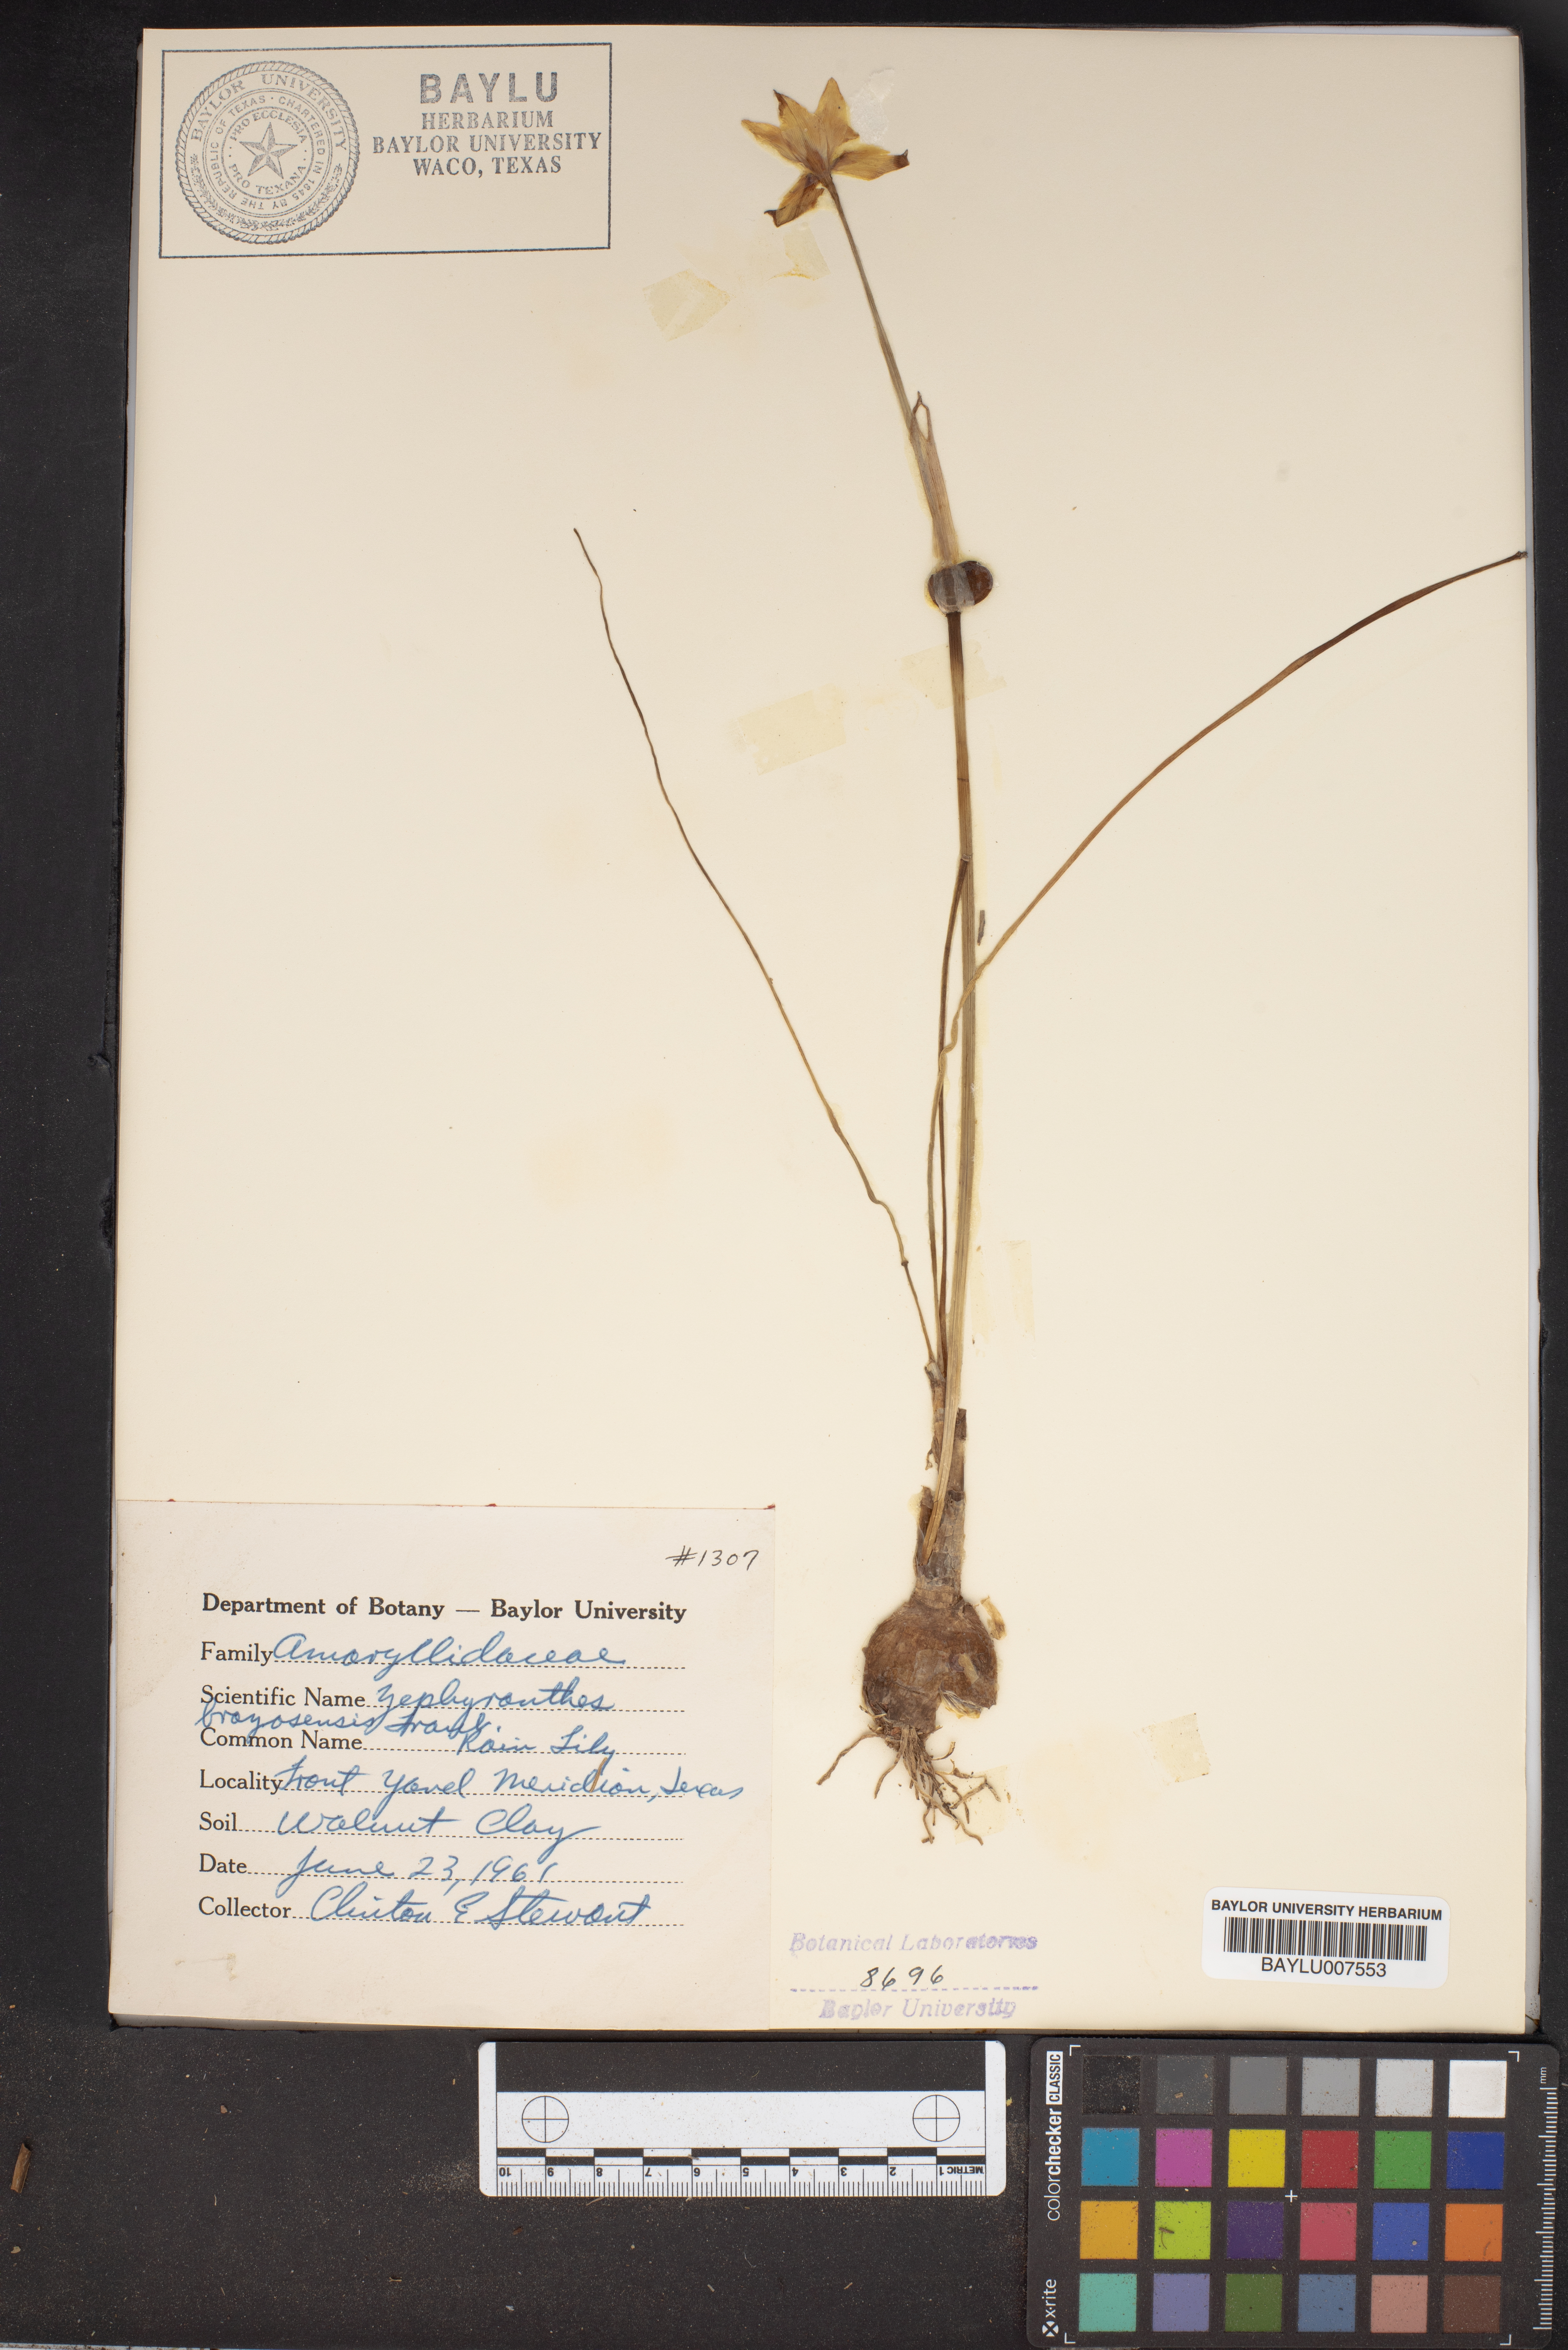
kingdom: Plantae
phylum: Tracheophyta
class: Liliopsida
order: Asparagales
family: Amaryllidaceae
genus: Zephyranthes
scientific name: Zephyranthes chlorosolen
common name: Evening rain-lily
